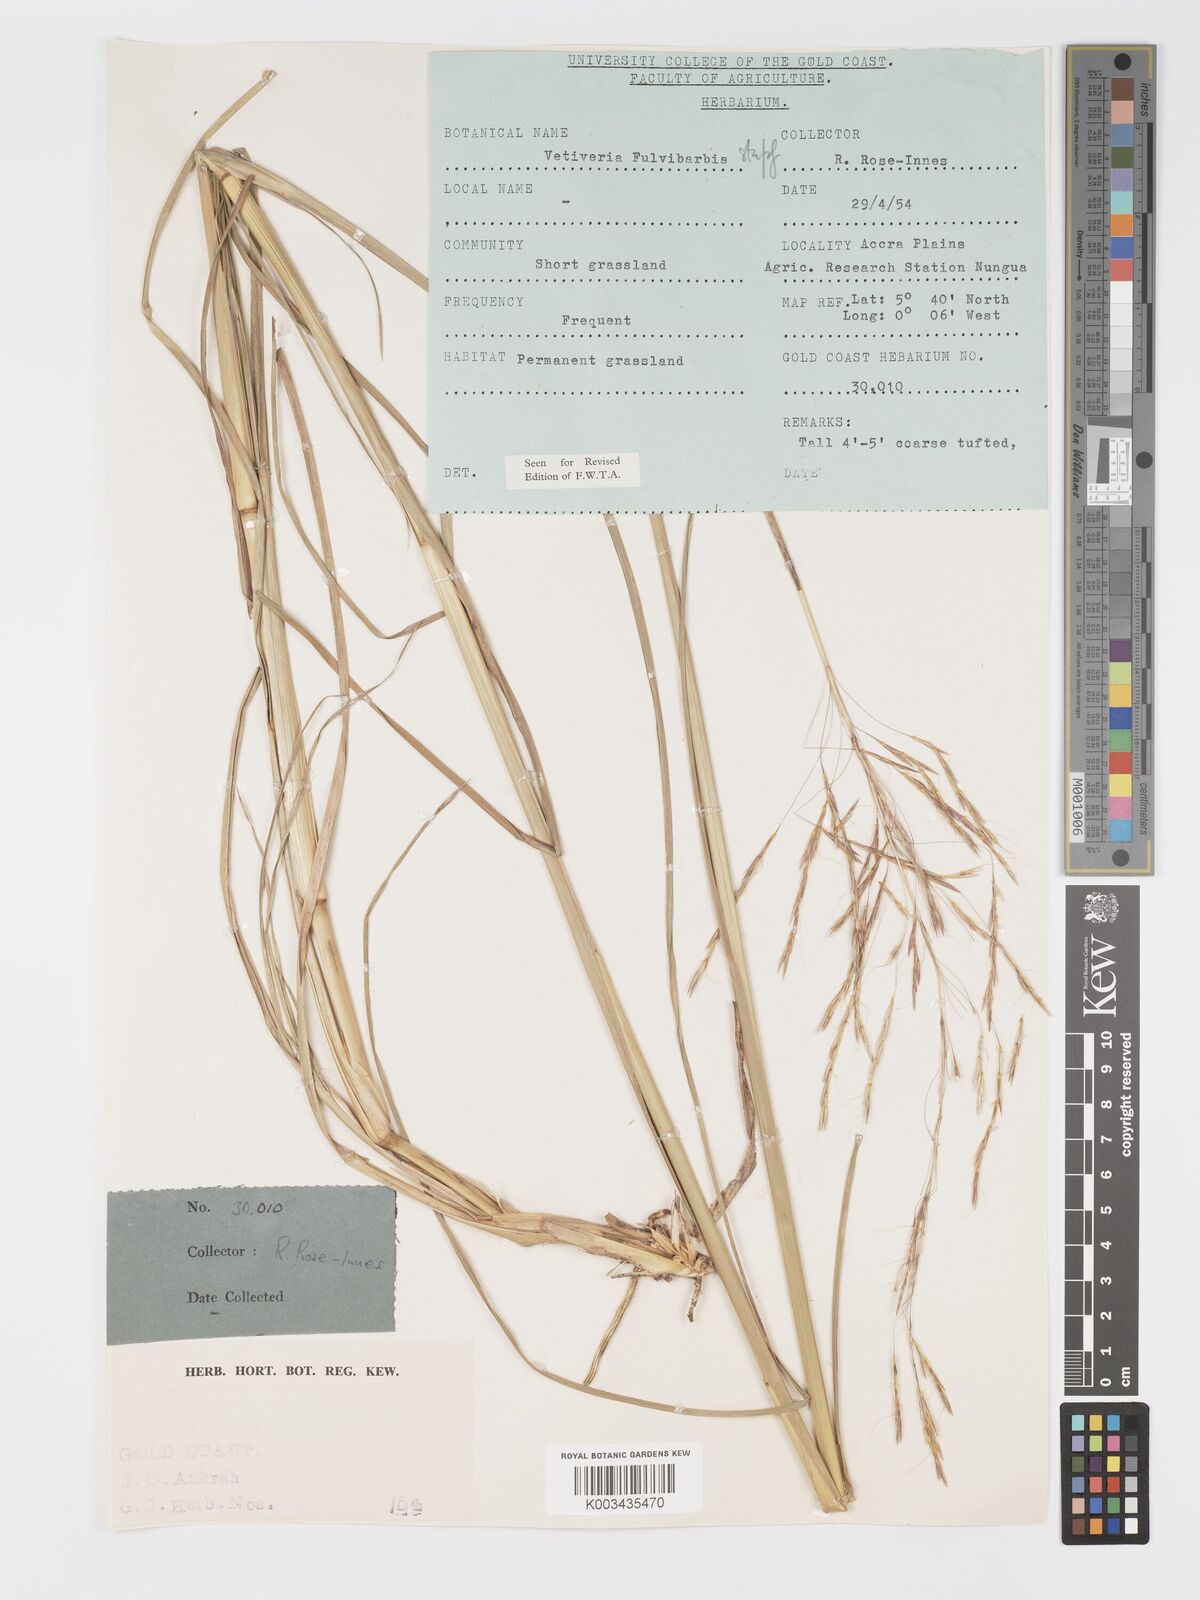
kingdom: Plantae
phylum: Tracheophyta
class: Liliopsida
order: Poales
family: Poaceae
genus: Chrysopogon
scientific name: Chrysopogon fulvibarbis
